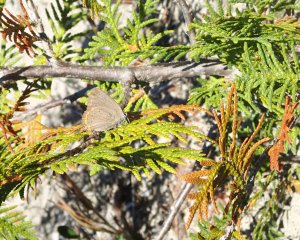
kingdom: Animalia
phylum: Arthropoda
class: Insecta
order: Lepidoptera
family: Lycaenidae
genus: Harkenclenus
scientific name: Harkenclenus titus
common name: Coral Hairstreak
